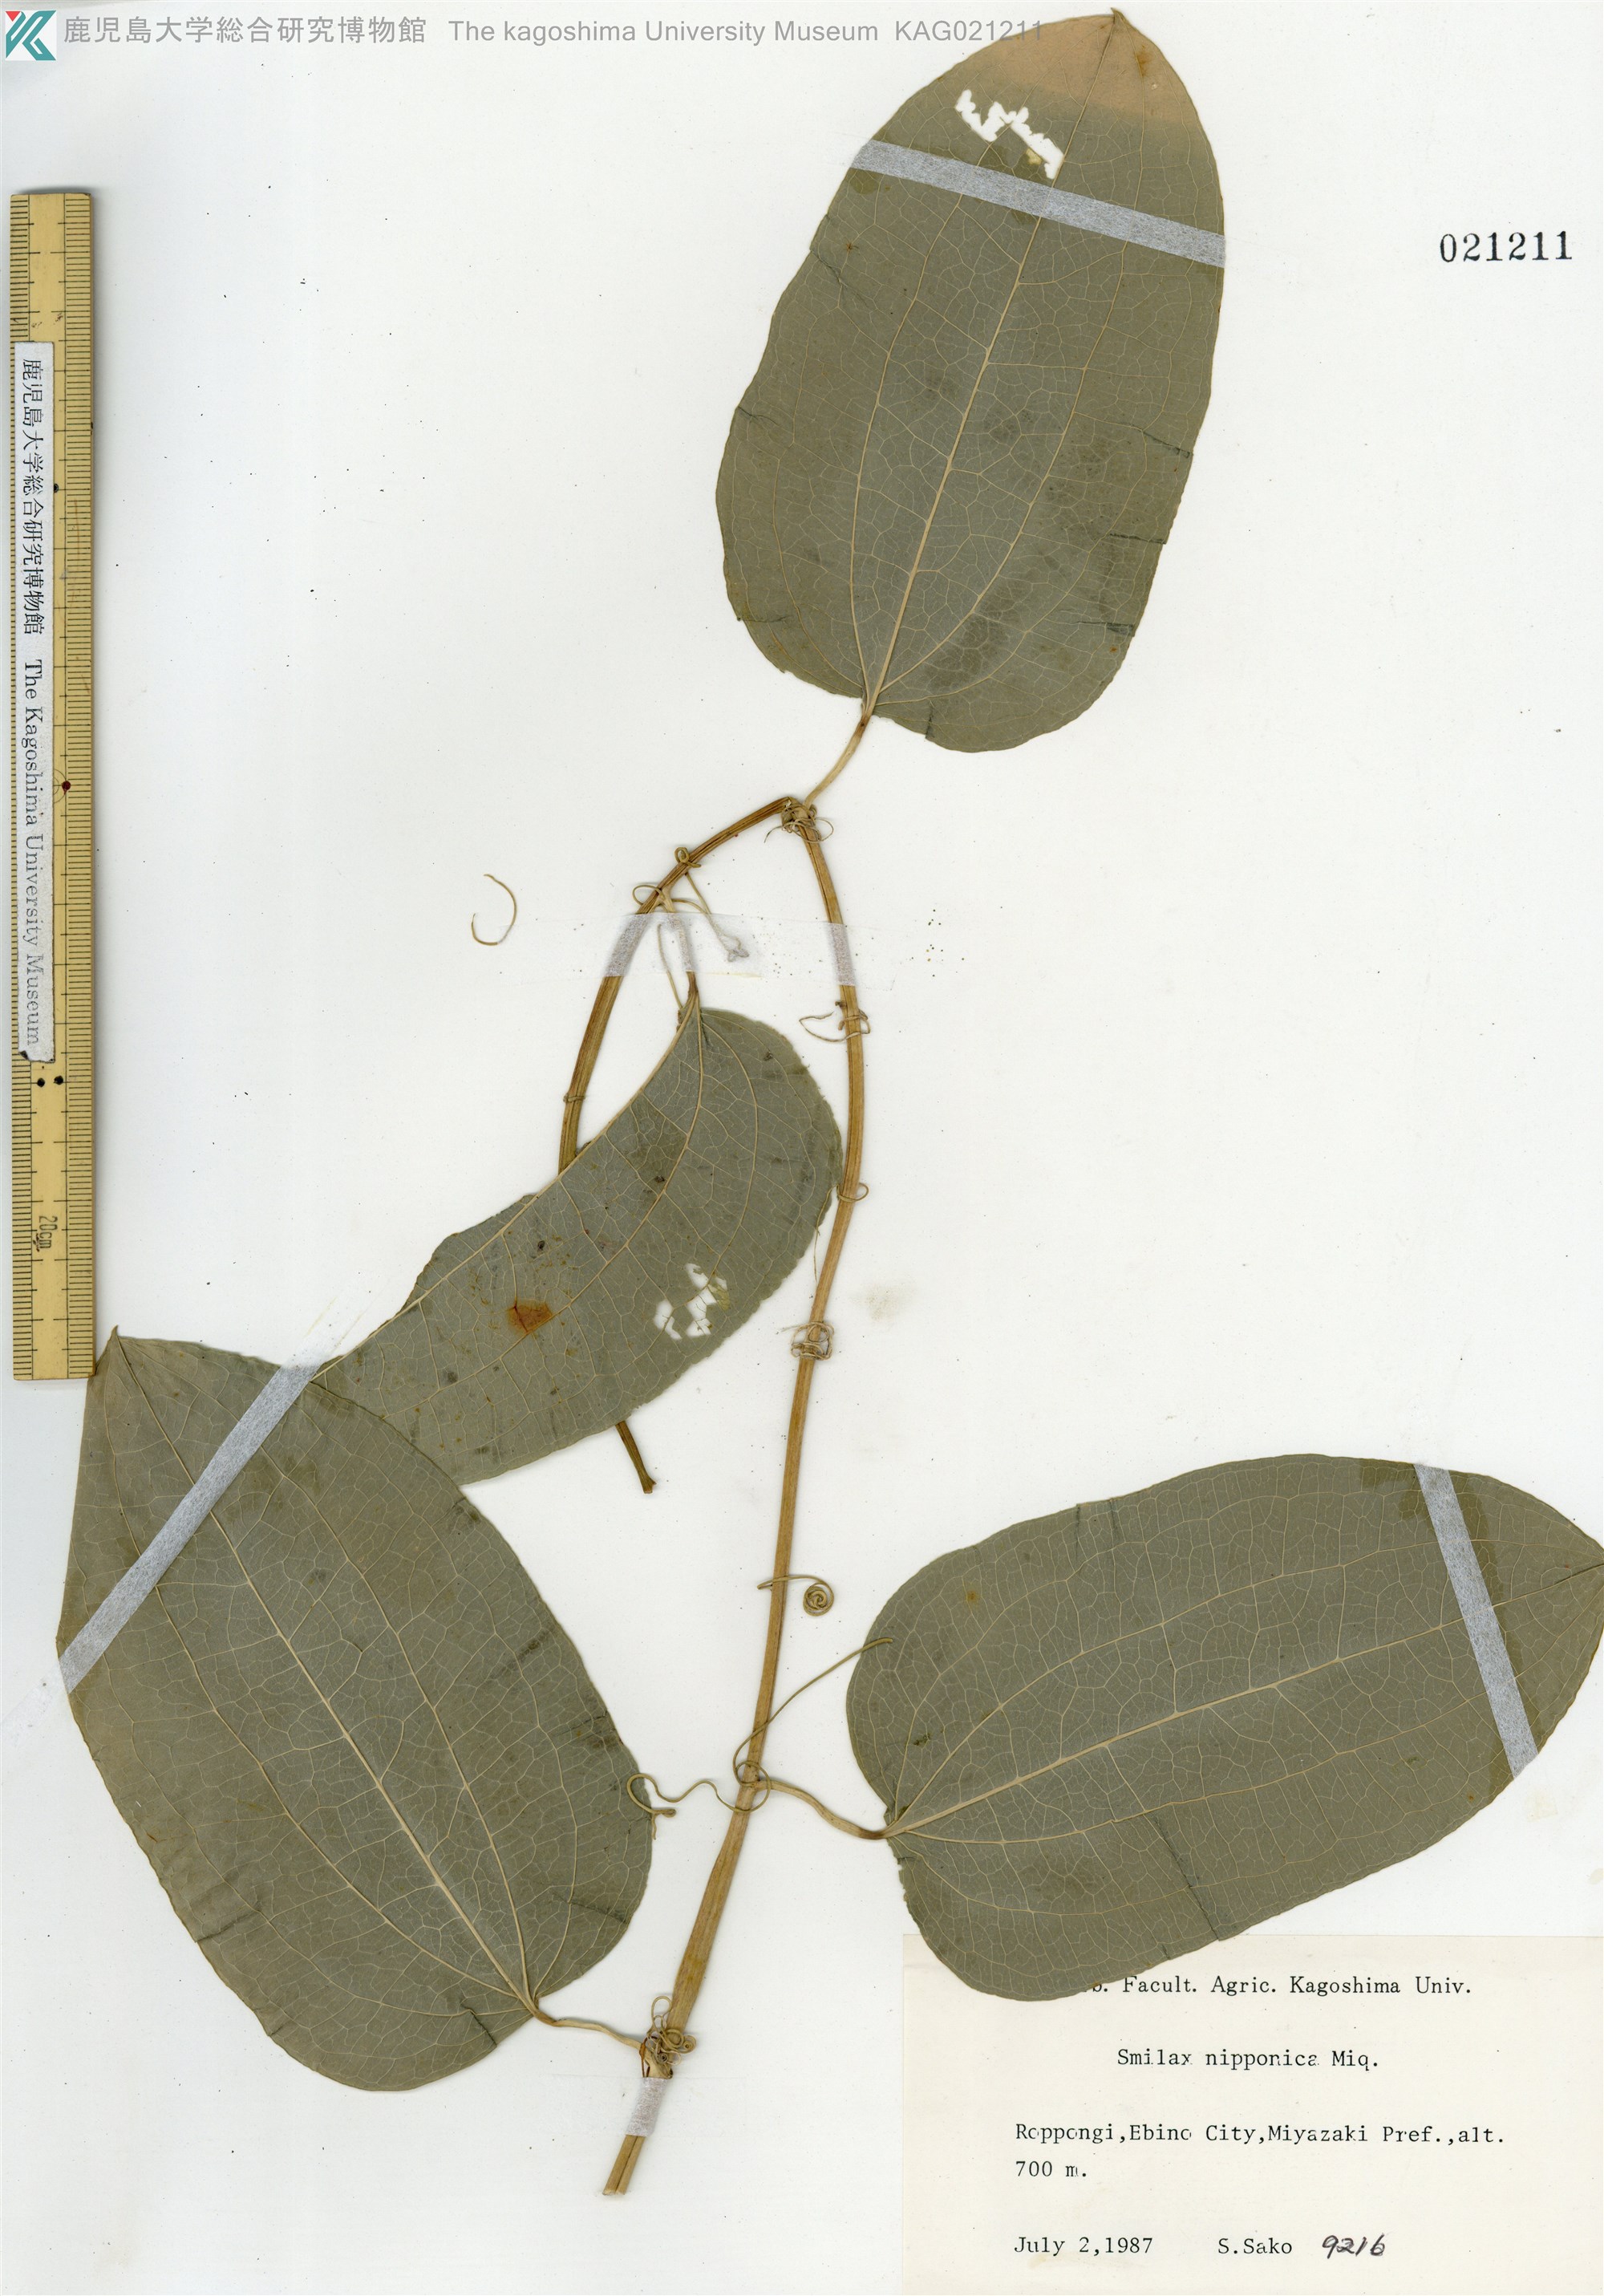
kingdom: Plantae
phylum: Tracheophyta
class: Liliopsida
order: Liliales
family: Smilacaceae
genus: Smilax
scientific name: Smilax nipponica
